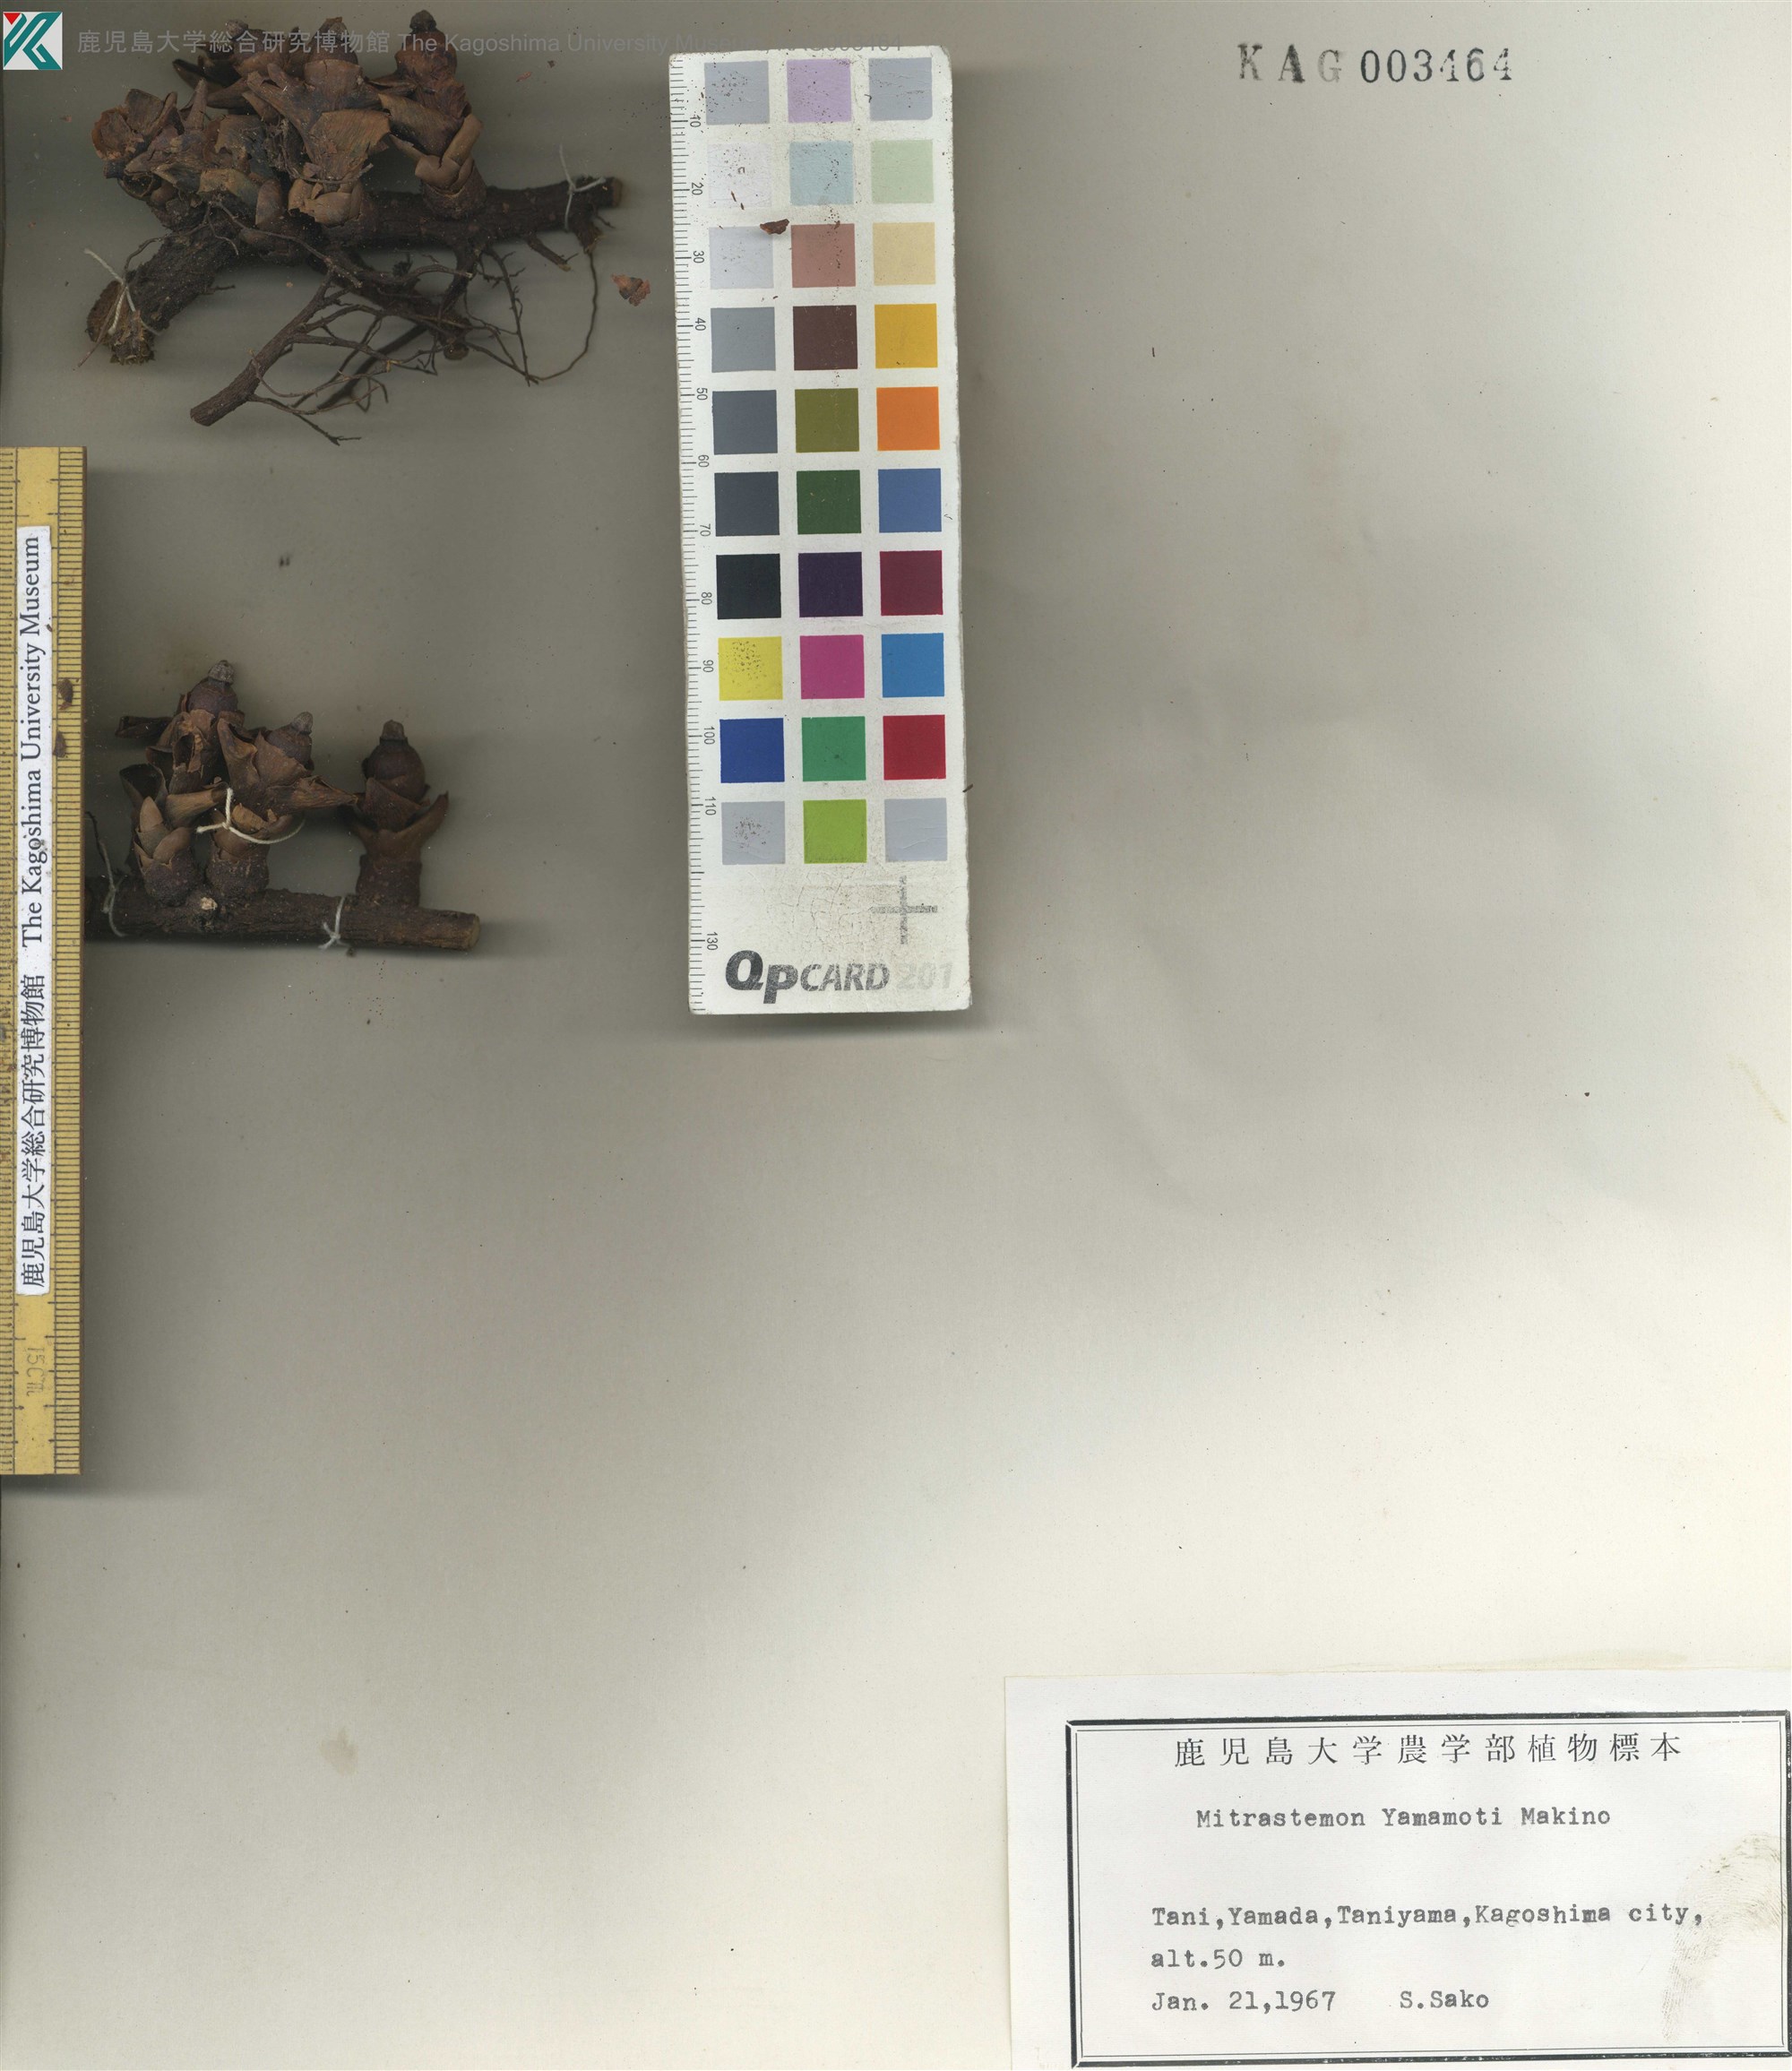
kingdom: Plantae
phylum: Tracheophyta
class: Magnoliopsida
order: Ericales
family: Mitrastemonaceae
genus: Mitrastemon
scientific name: Mitrastemon yamamotoi
